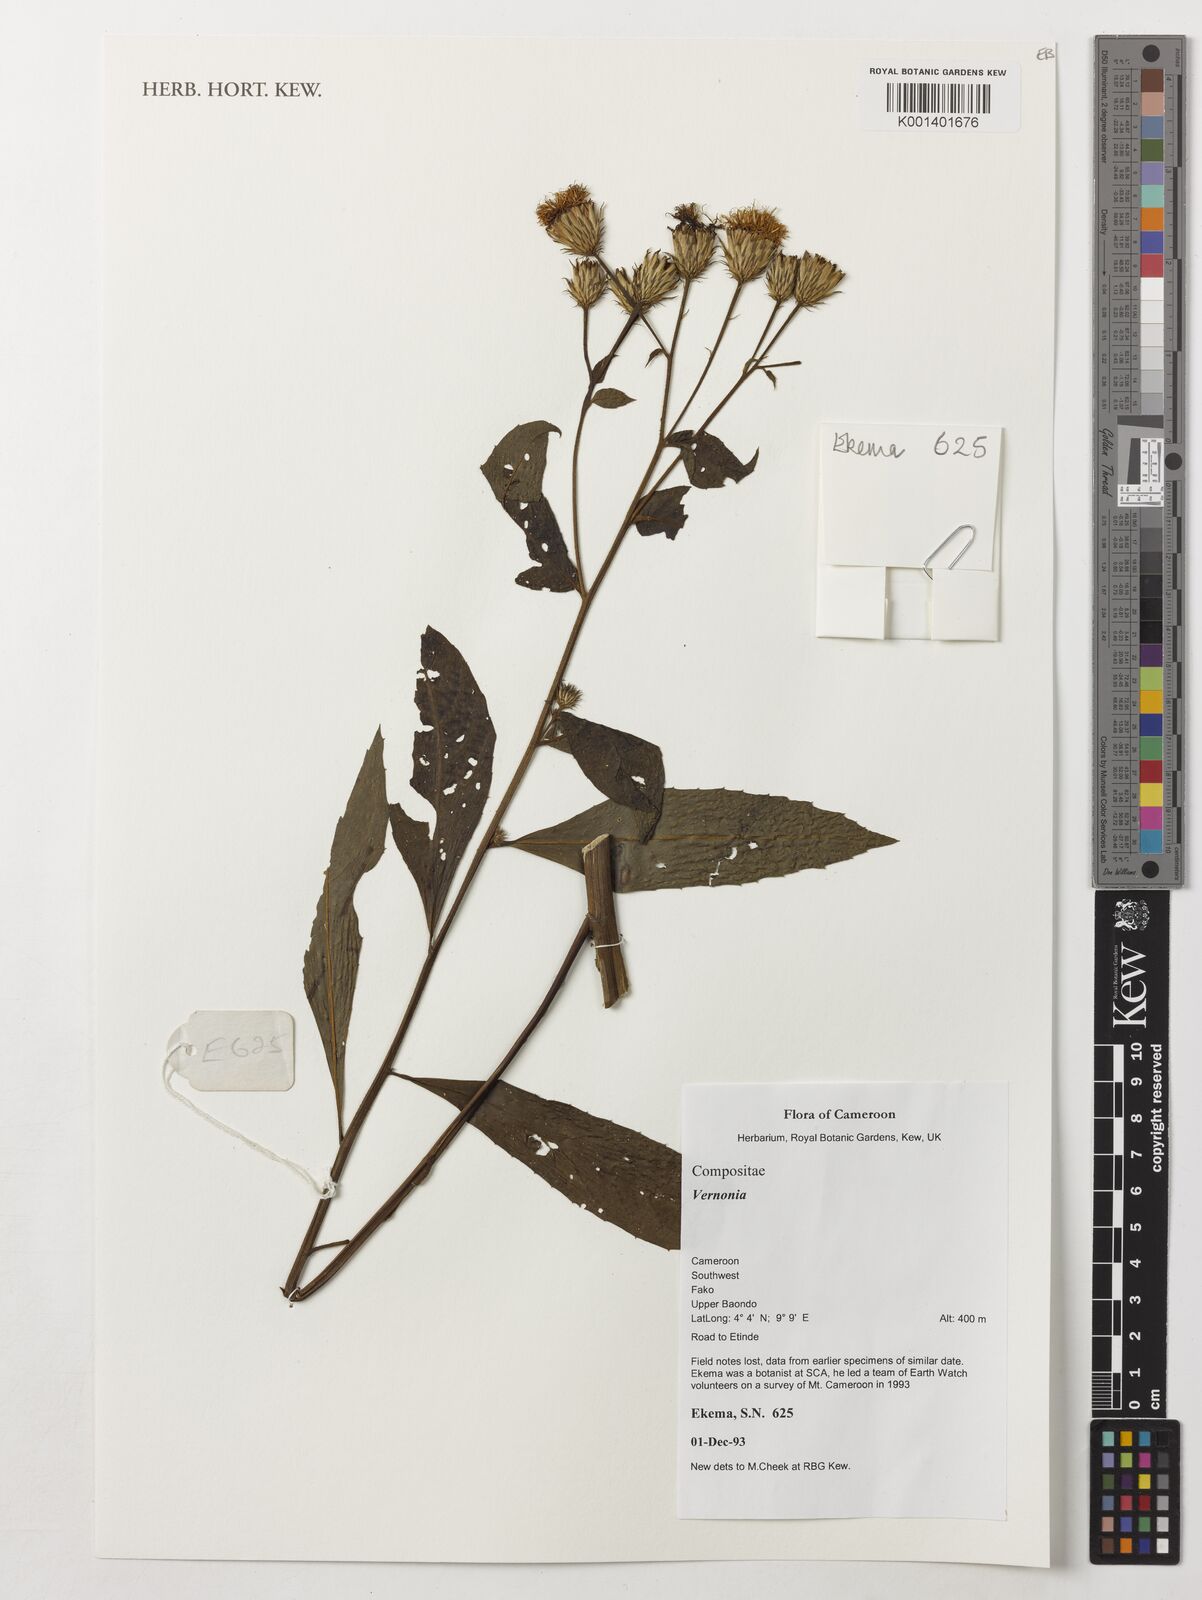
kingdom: Plantae
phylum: Tracheophyta
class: Magnoliopsida
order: Asterales
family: Asteraceae
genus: Vernonia
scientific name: Vernonia
